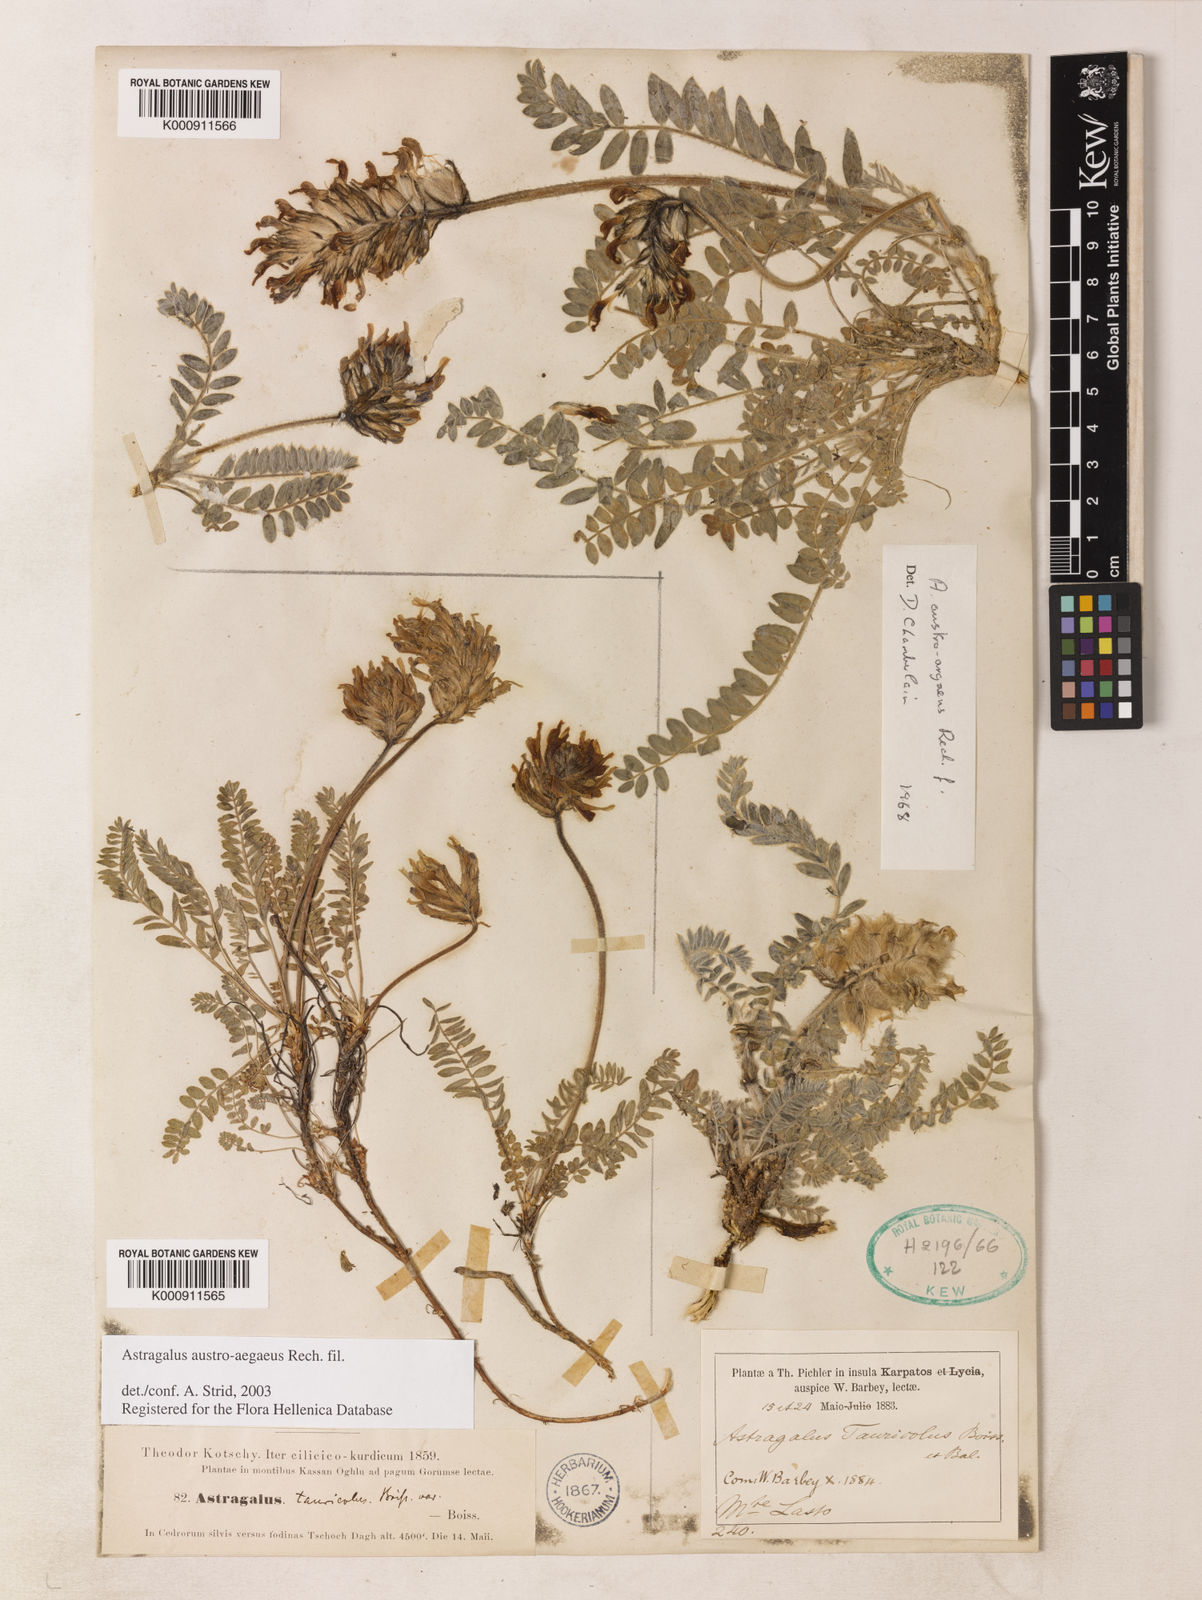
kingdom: Plantae
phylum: Tracheophyta
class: Magnoliopsida
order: Fabales
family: Fabaceae
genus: Astragalus
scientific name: Astragalus austroaegaeus
